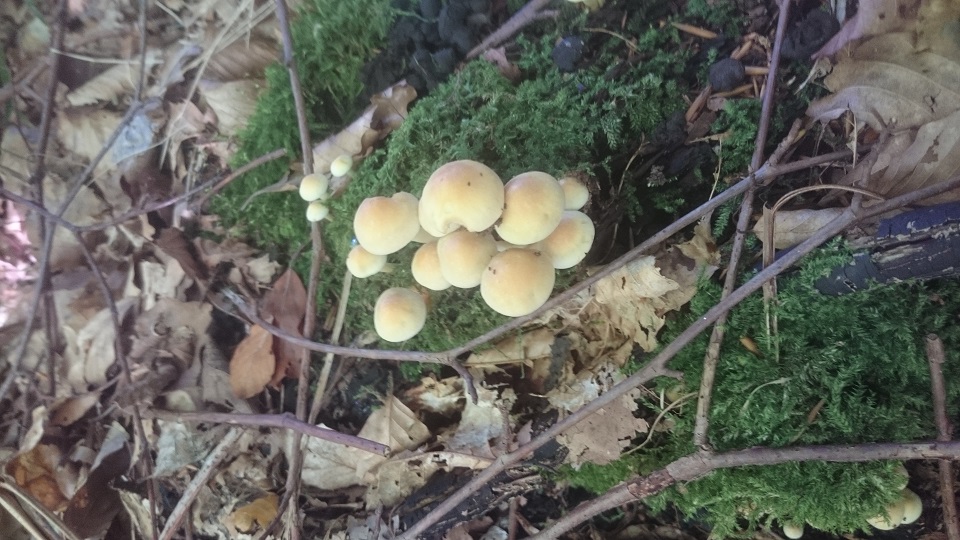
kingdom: Fungi
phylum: Basidiomycota
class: Agaricomycetes
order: Agaricales
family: Strophariaceae
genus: Hypholoma
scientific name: Hypholoma fasciculare
